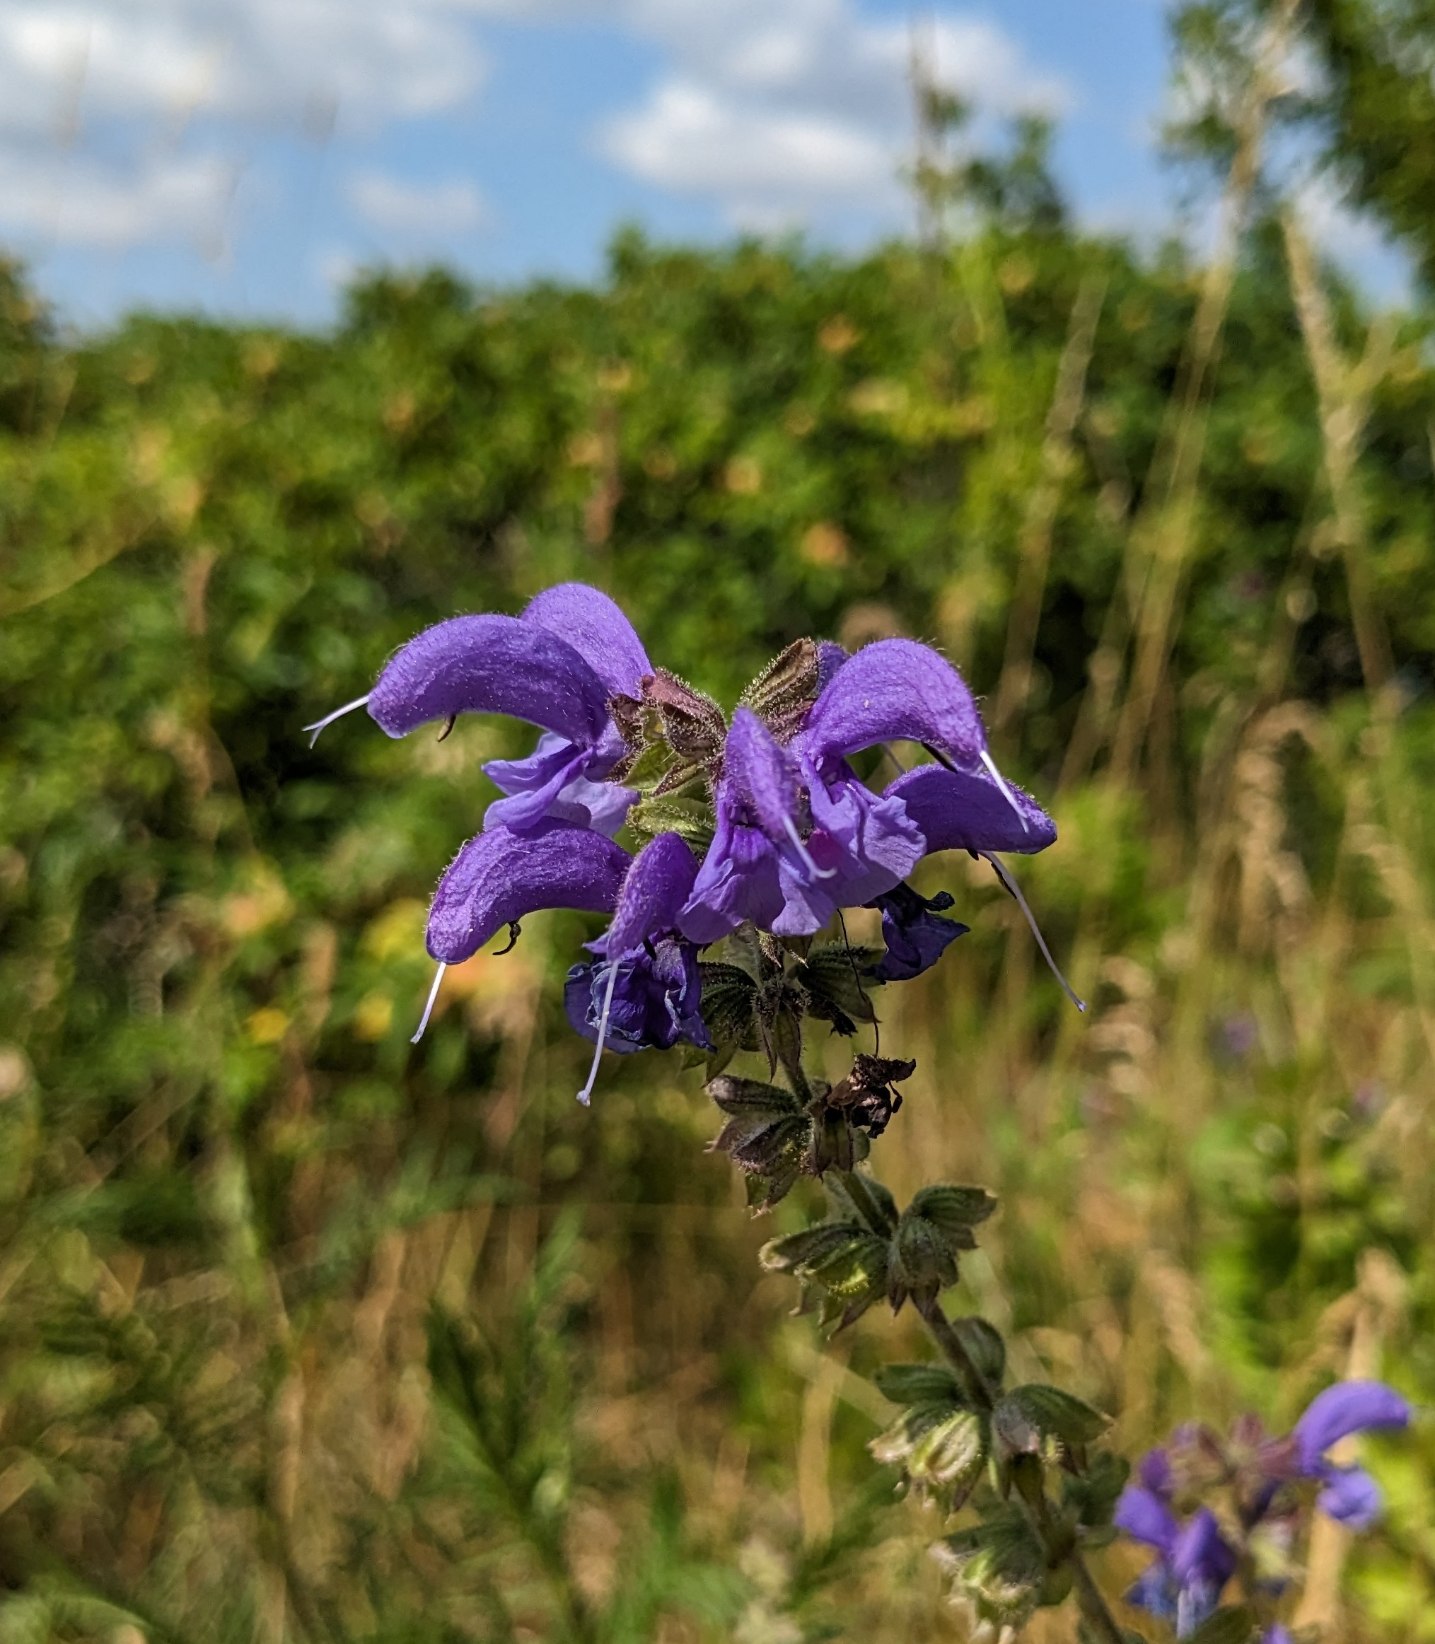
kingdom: Plantae
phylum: Tracheophyta
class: Magnoliopsida
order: Lamiales
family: Lamiaceae
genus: Salvia
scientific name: Salvia pratensis
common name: Eng-salvie
